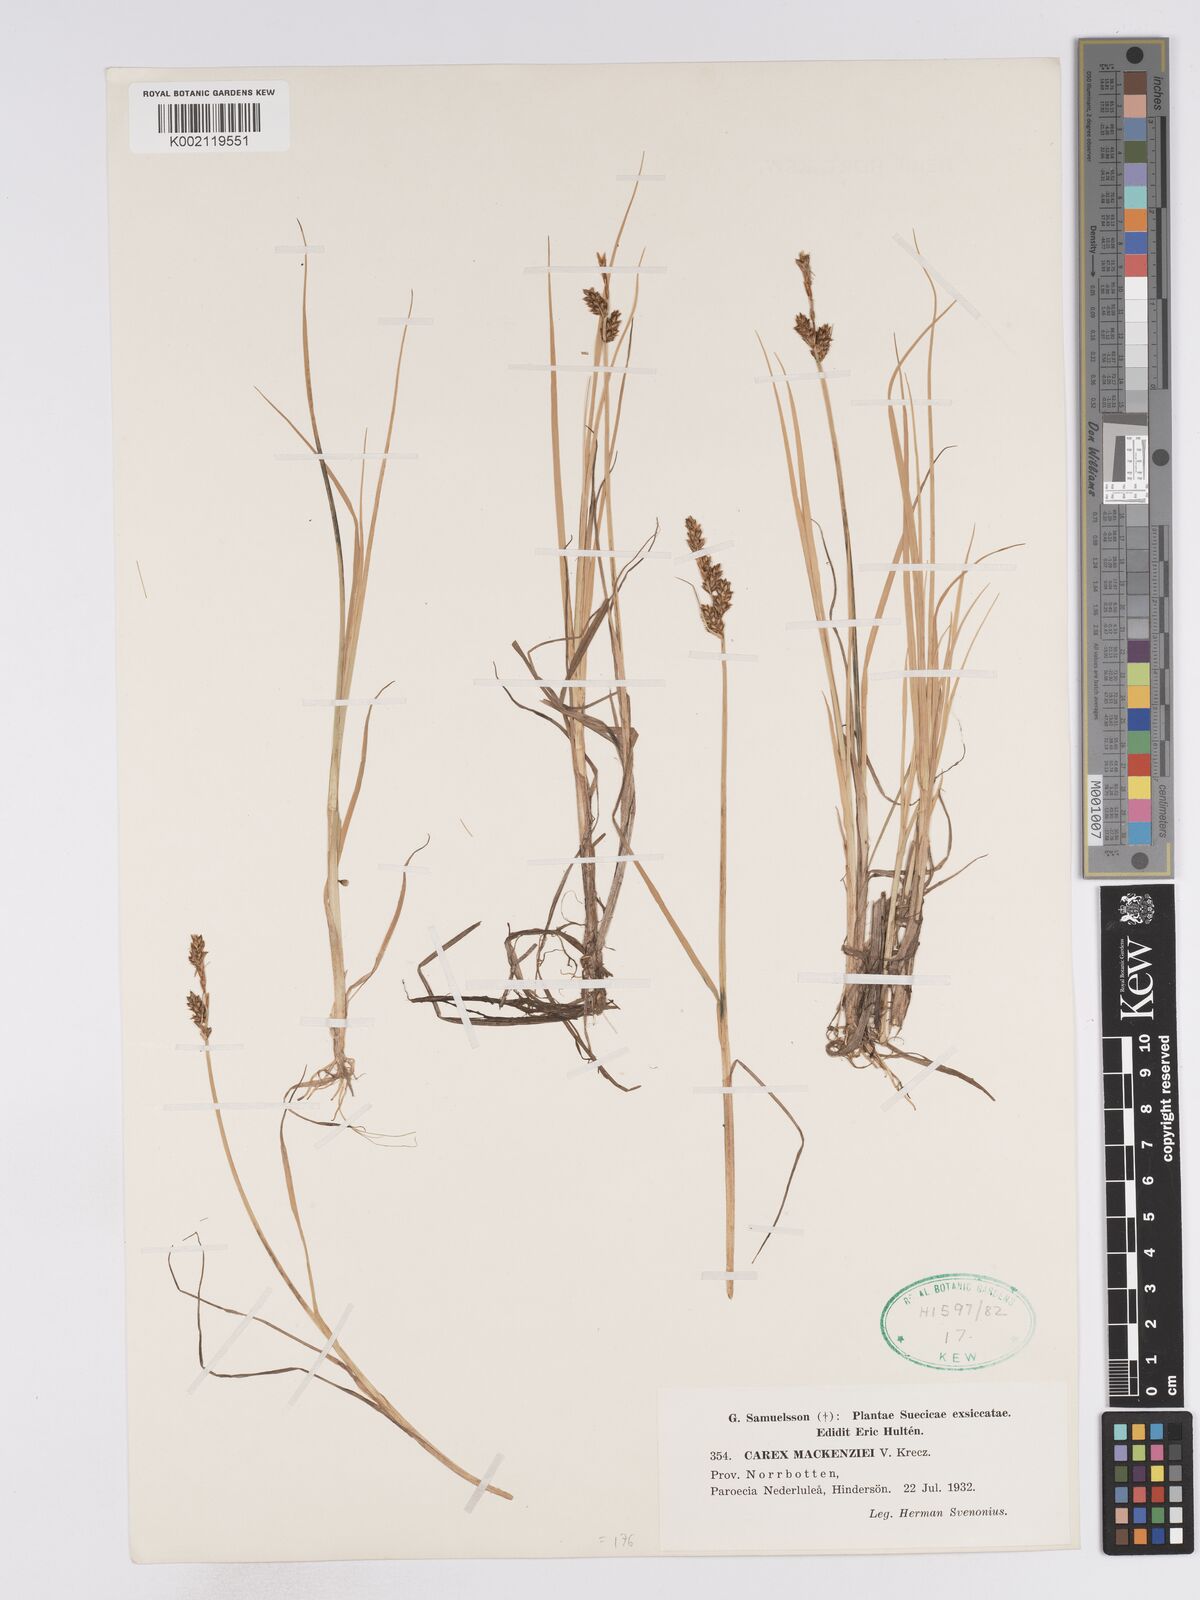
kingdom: Plantae
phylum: Tracheophyta
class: Liliopsida
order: Poales
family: Cyperaceae
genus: Carex
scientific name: Carex mackenziei
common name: Mackenzie's sedge
